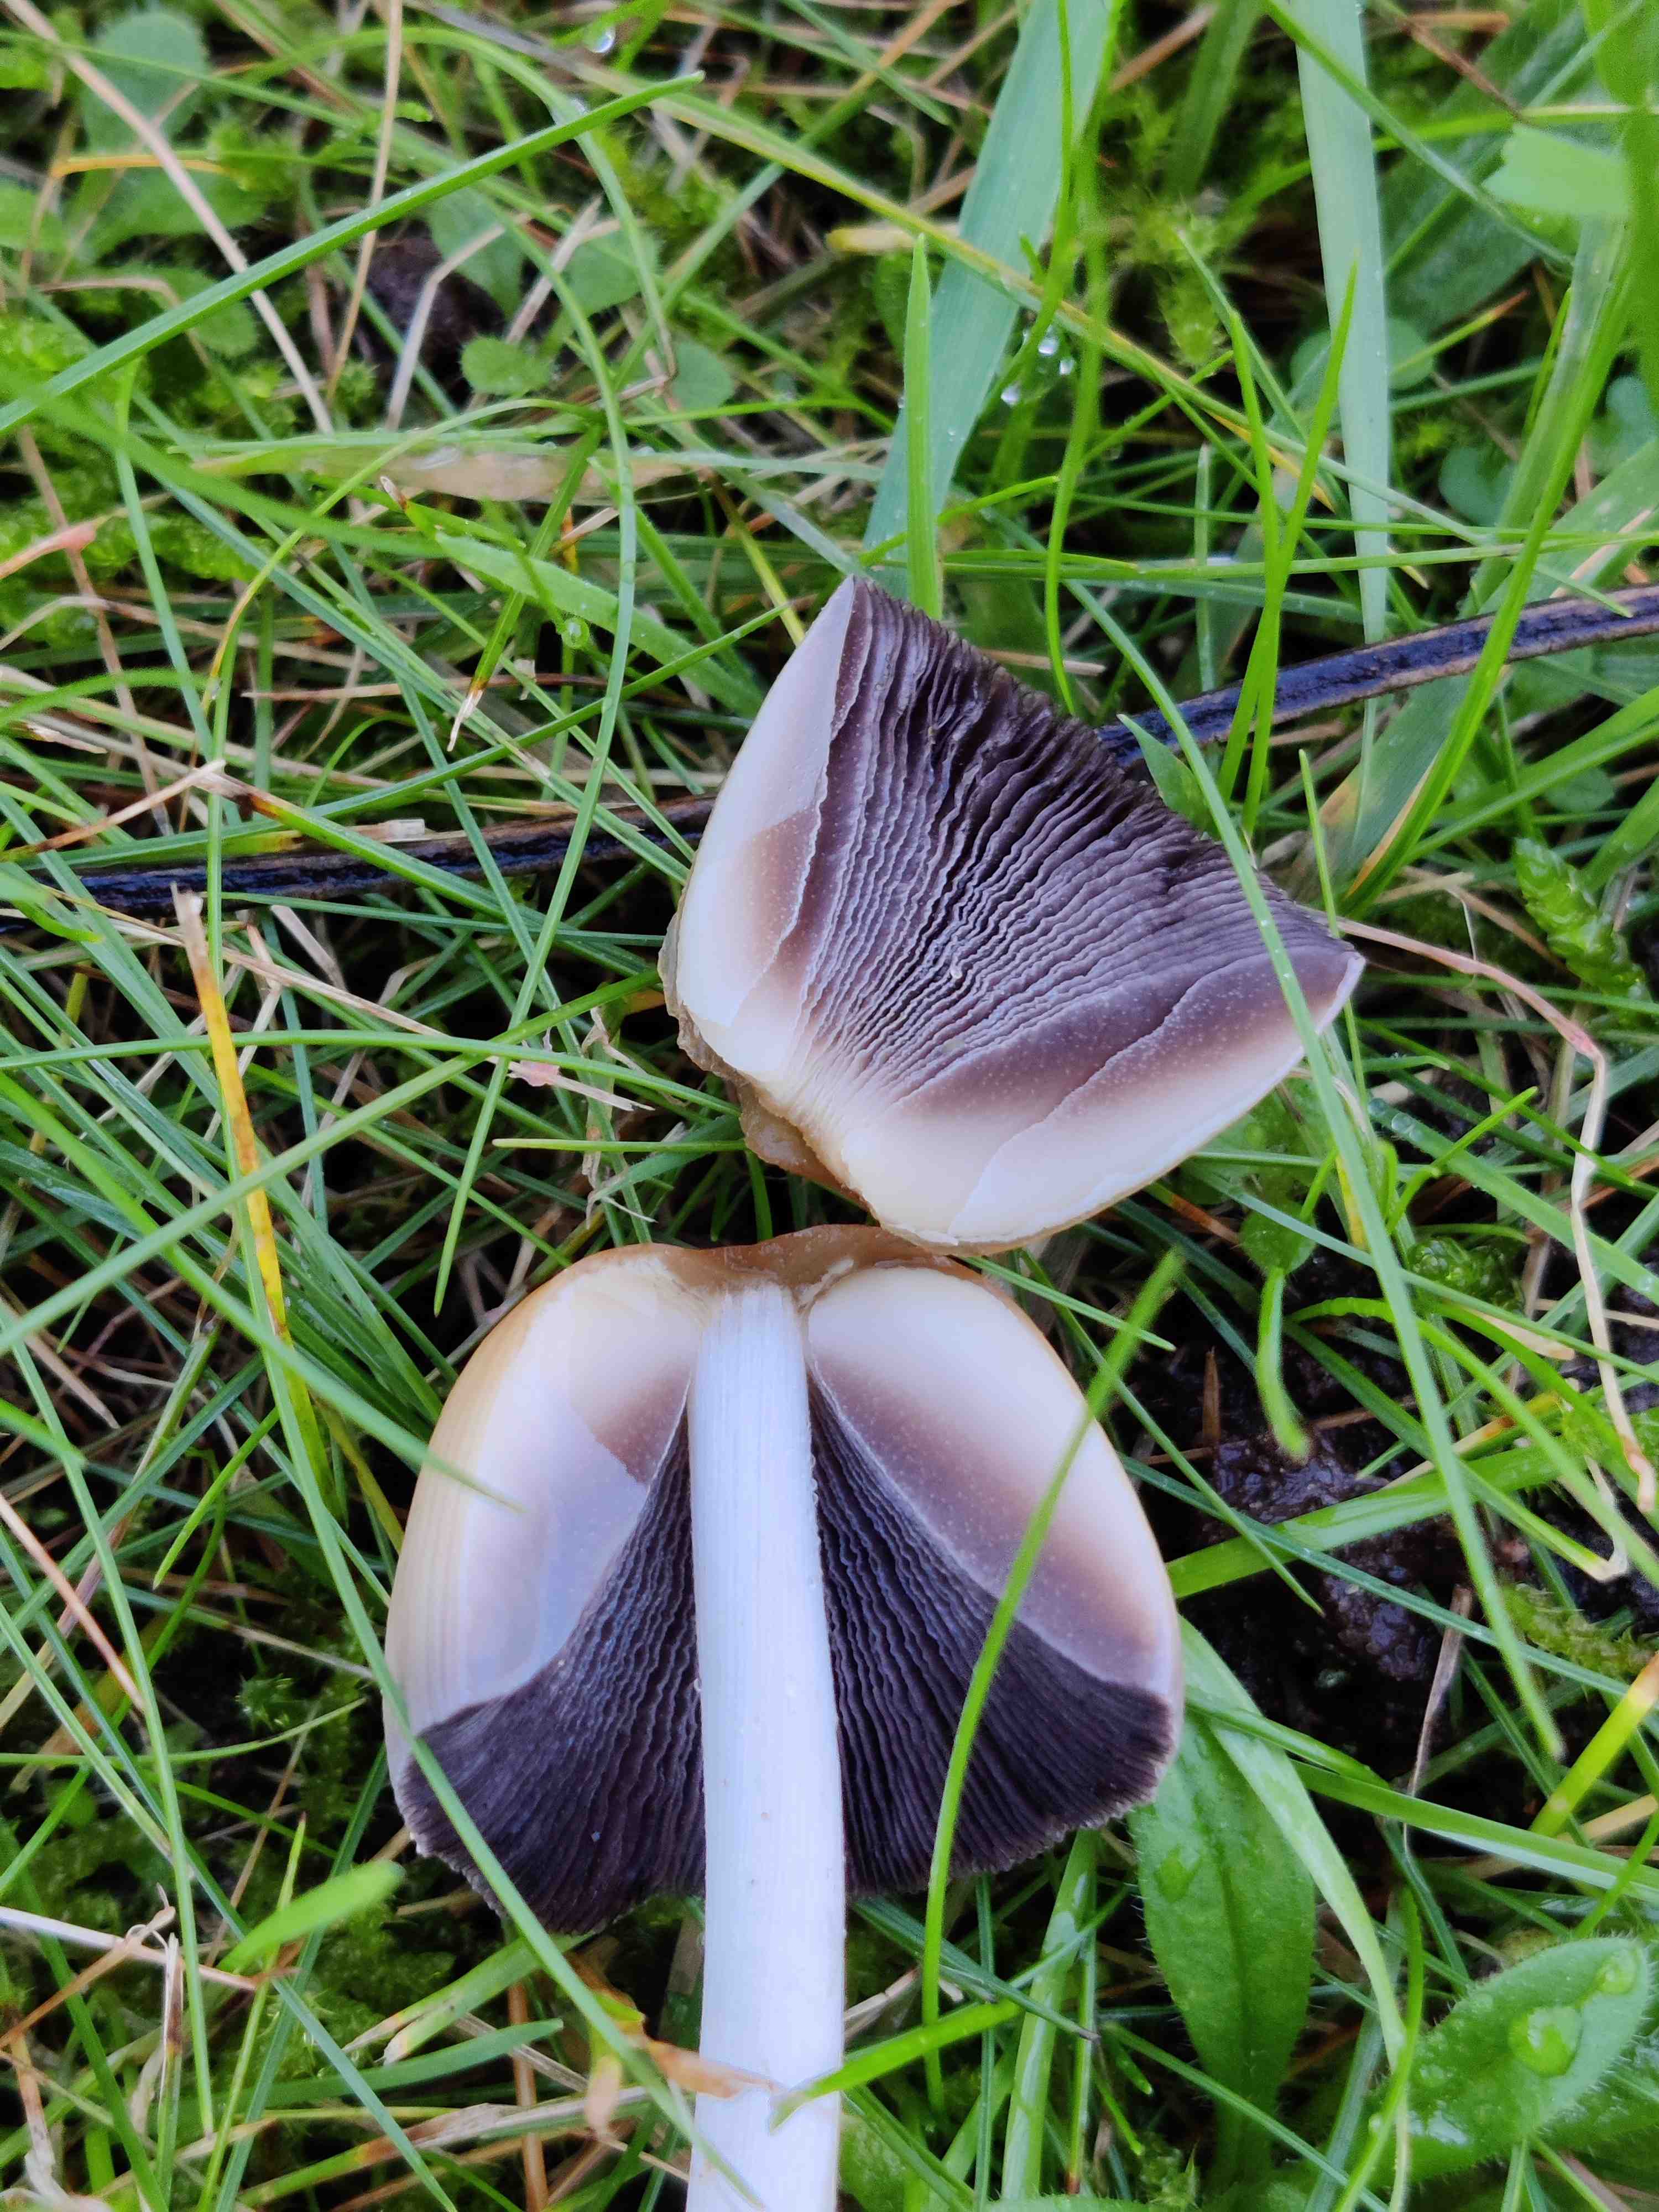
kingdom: Fungi
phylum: Basidiomycota
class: Agaricomycetes
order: Agaricales
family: Psathyrellaceae
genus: Coprinellus
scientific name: Coprinellus micaceus
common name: glimmer-blækhat
